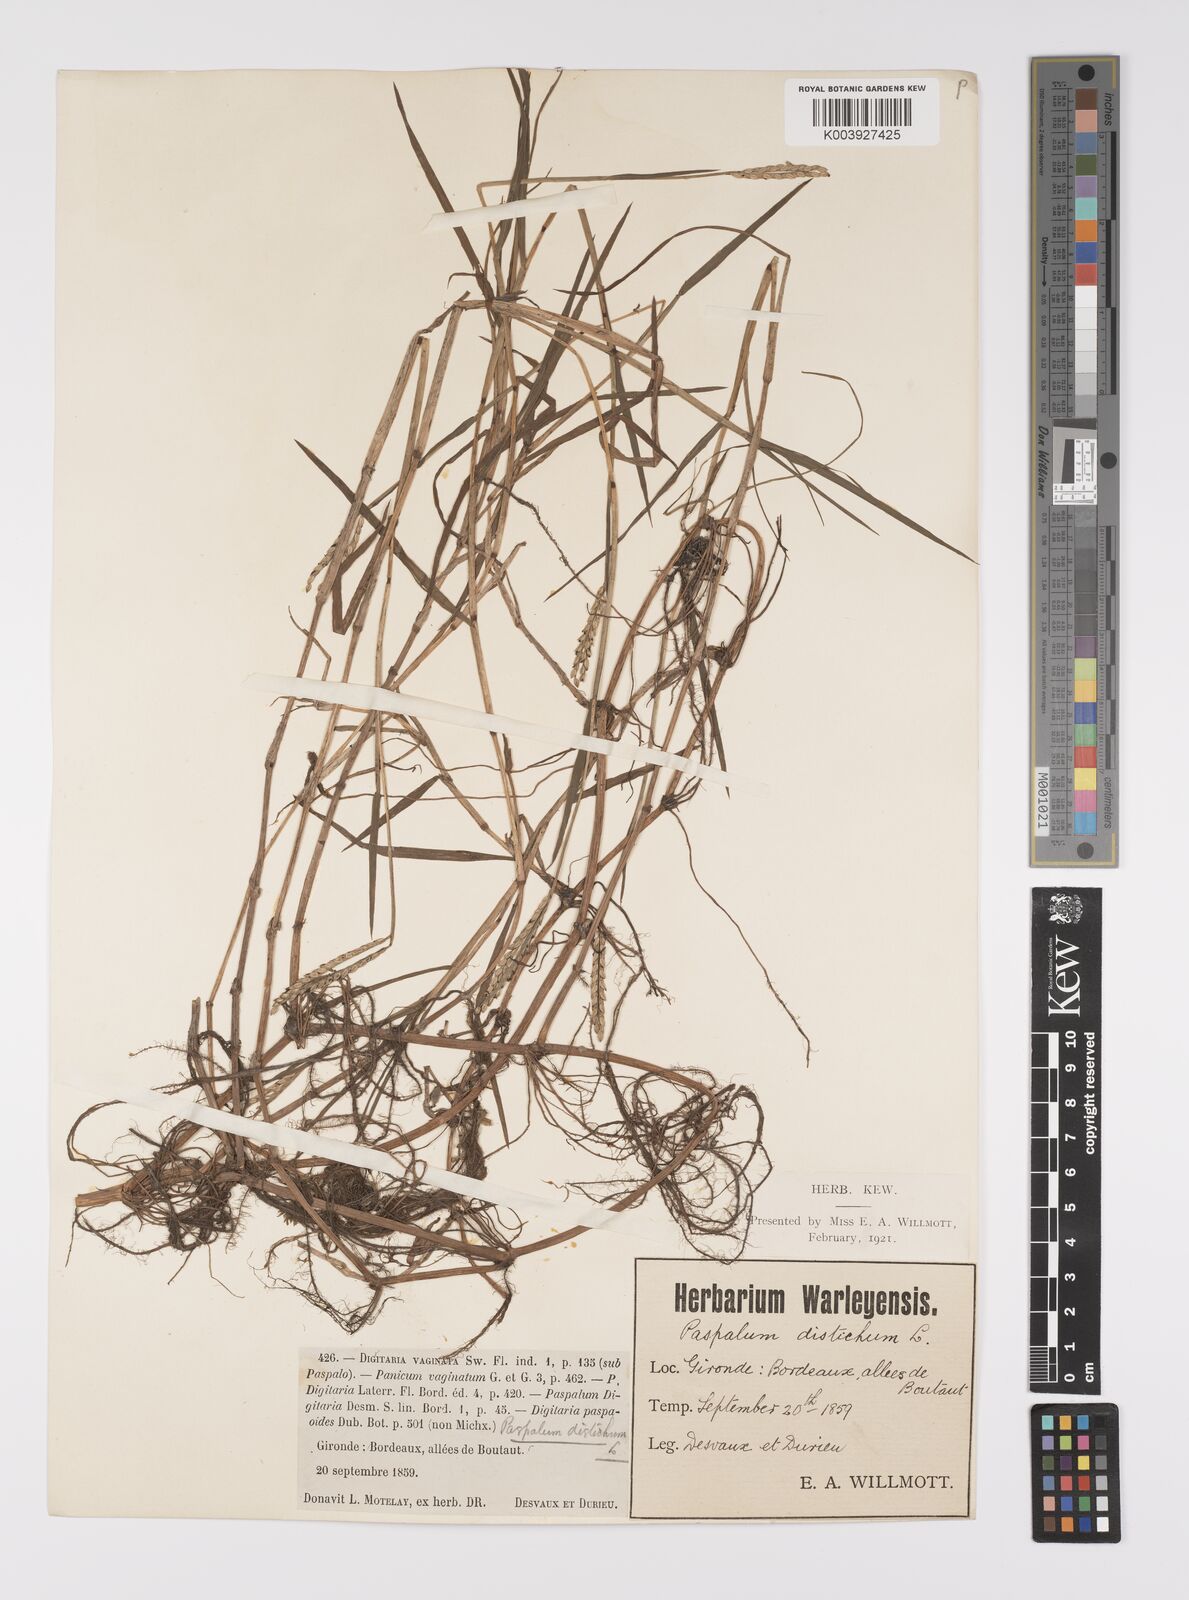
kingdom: Plantae
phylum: Tracheophyta
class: Liliopsida
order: Poales
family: Poaceae
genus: Paspalum
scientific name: Paspalum distichum
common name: Knotgrass
